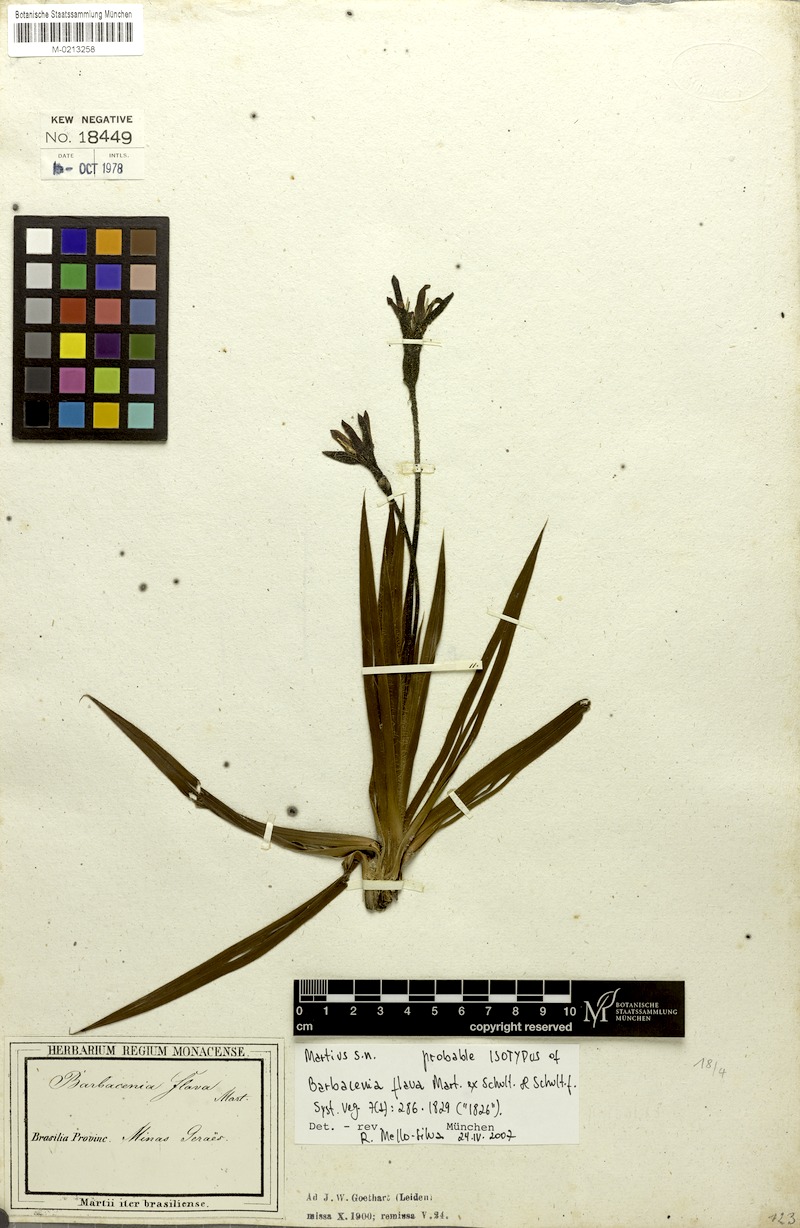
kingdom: Plantae
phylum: Tracheophyta
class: Liliopsida
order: Pandanales
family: Velloziaceae
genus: Barbacenia
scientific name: Barbacenia flava
